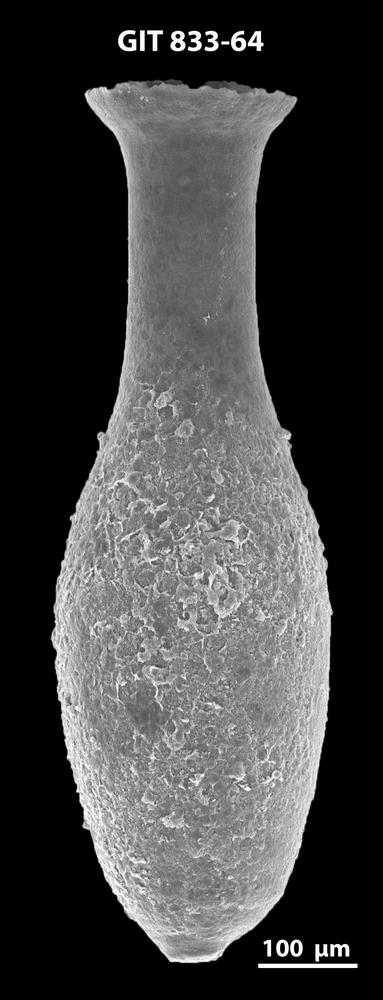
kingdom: Animalia
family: Lagenochitinidae
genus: Lagenochitina
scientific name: Lagenochitina megaesthonica
